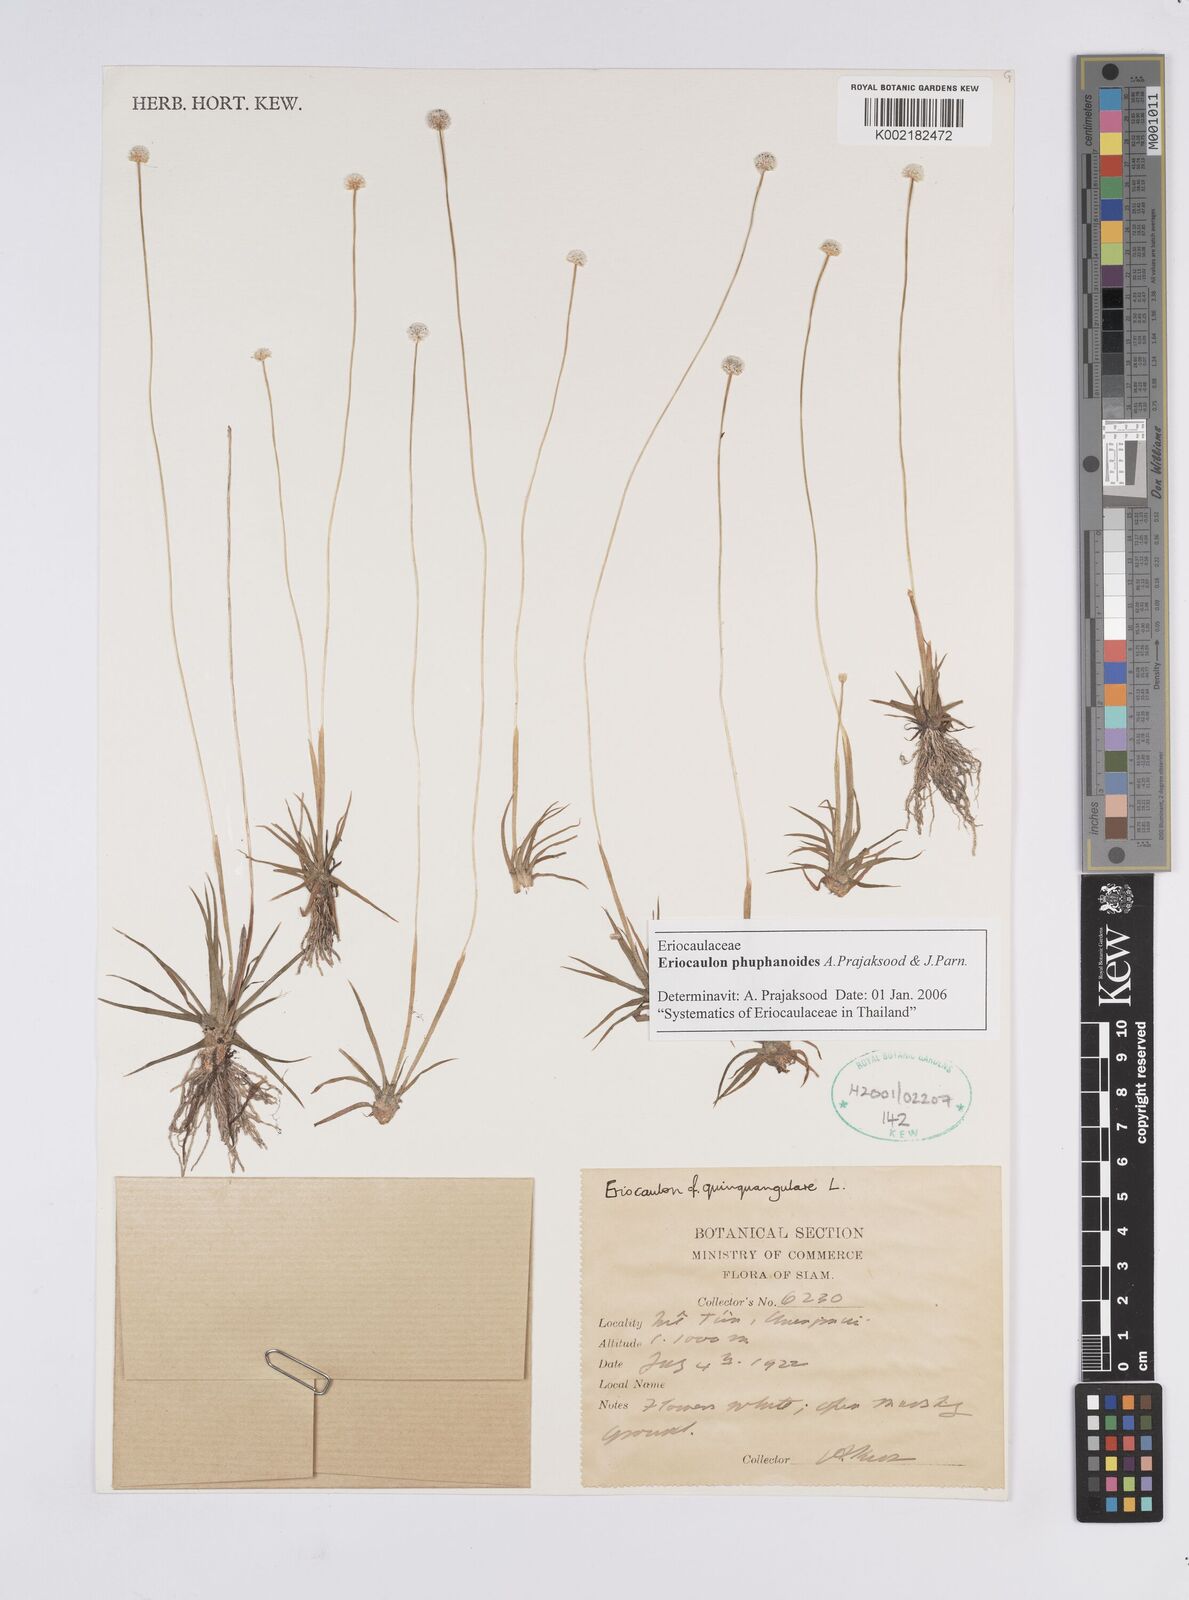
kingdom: Plantae
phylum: Tracheophyta
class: Liliopsida
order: Poales
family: Eriocaulaceae
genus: Eriocaulon
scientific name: Eriocaulon phuphanoides
